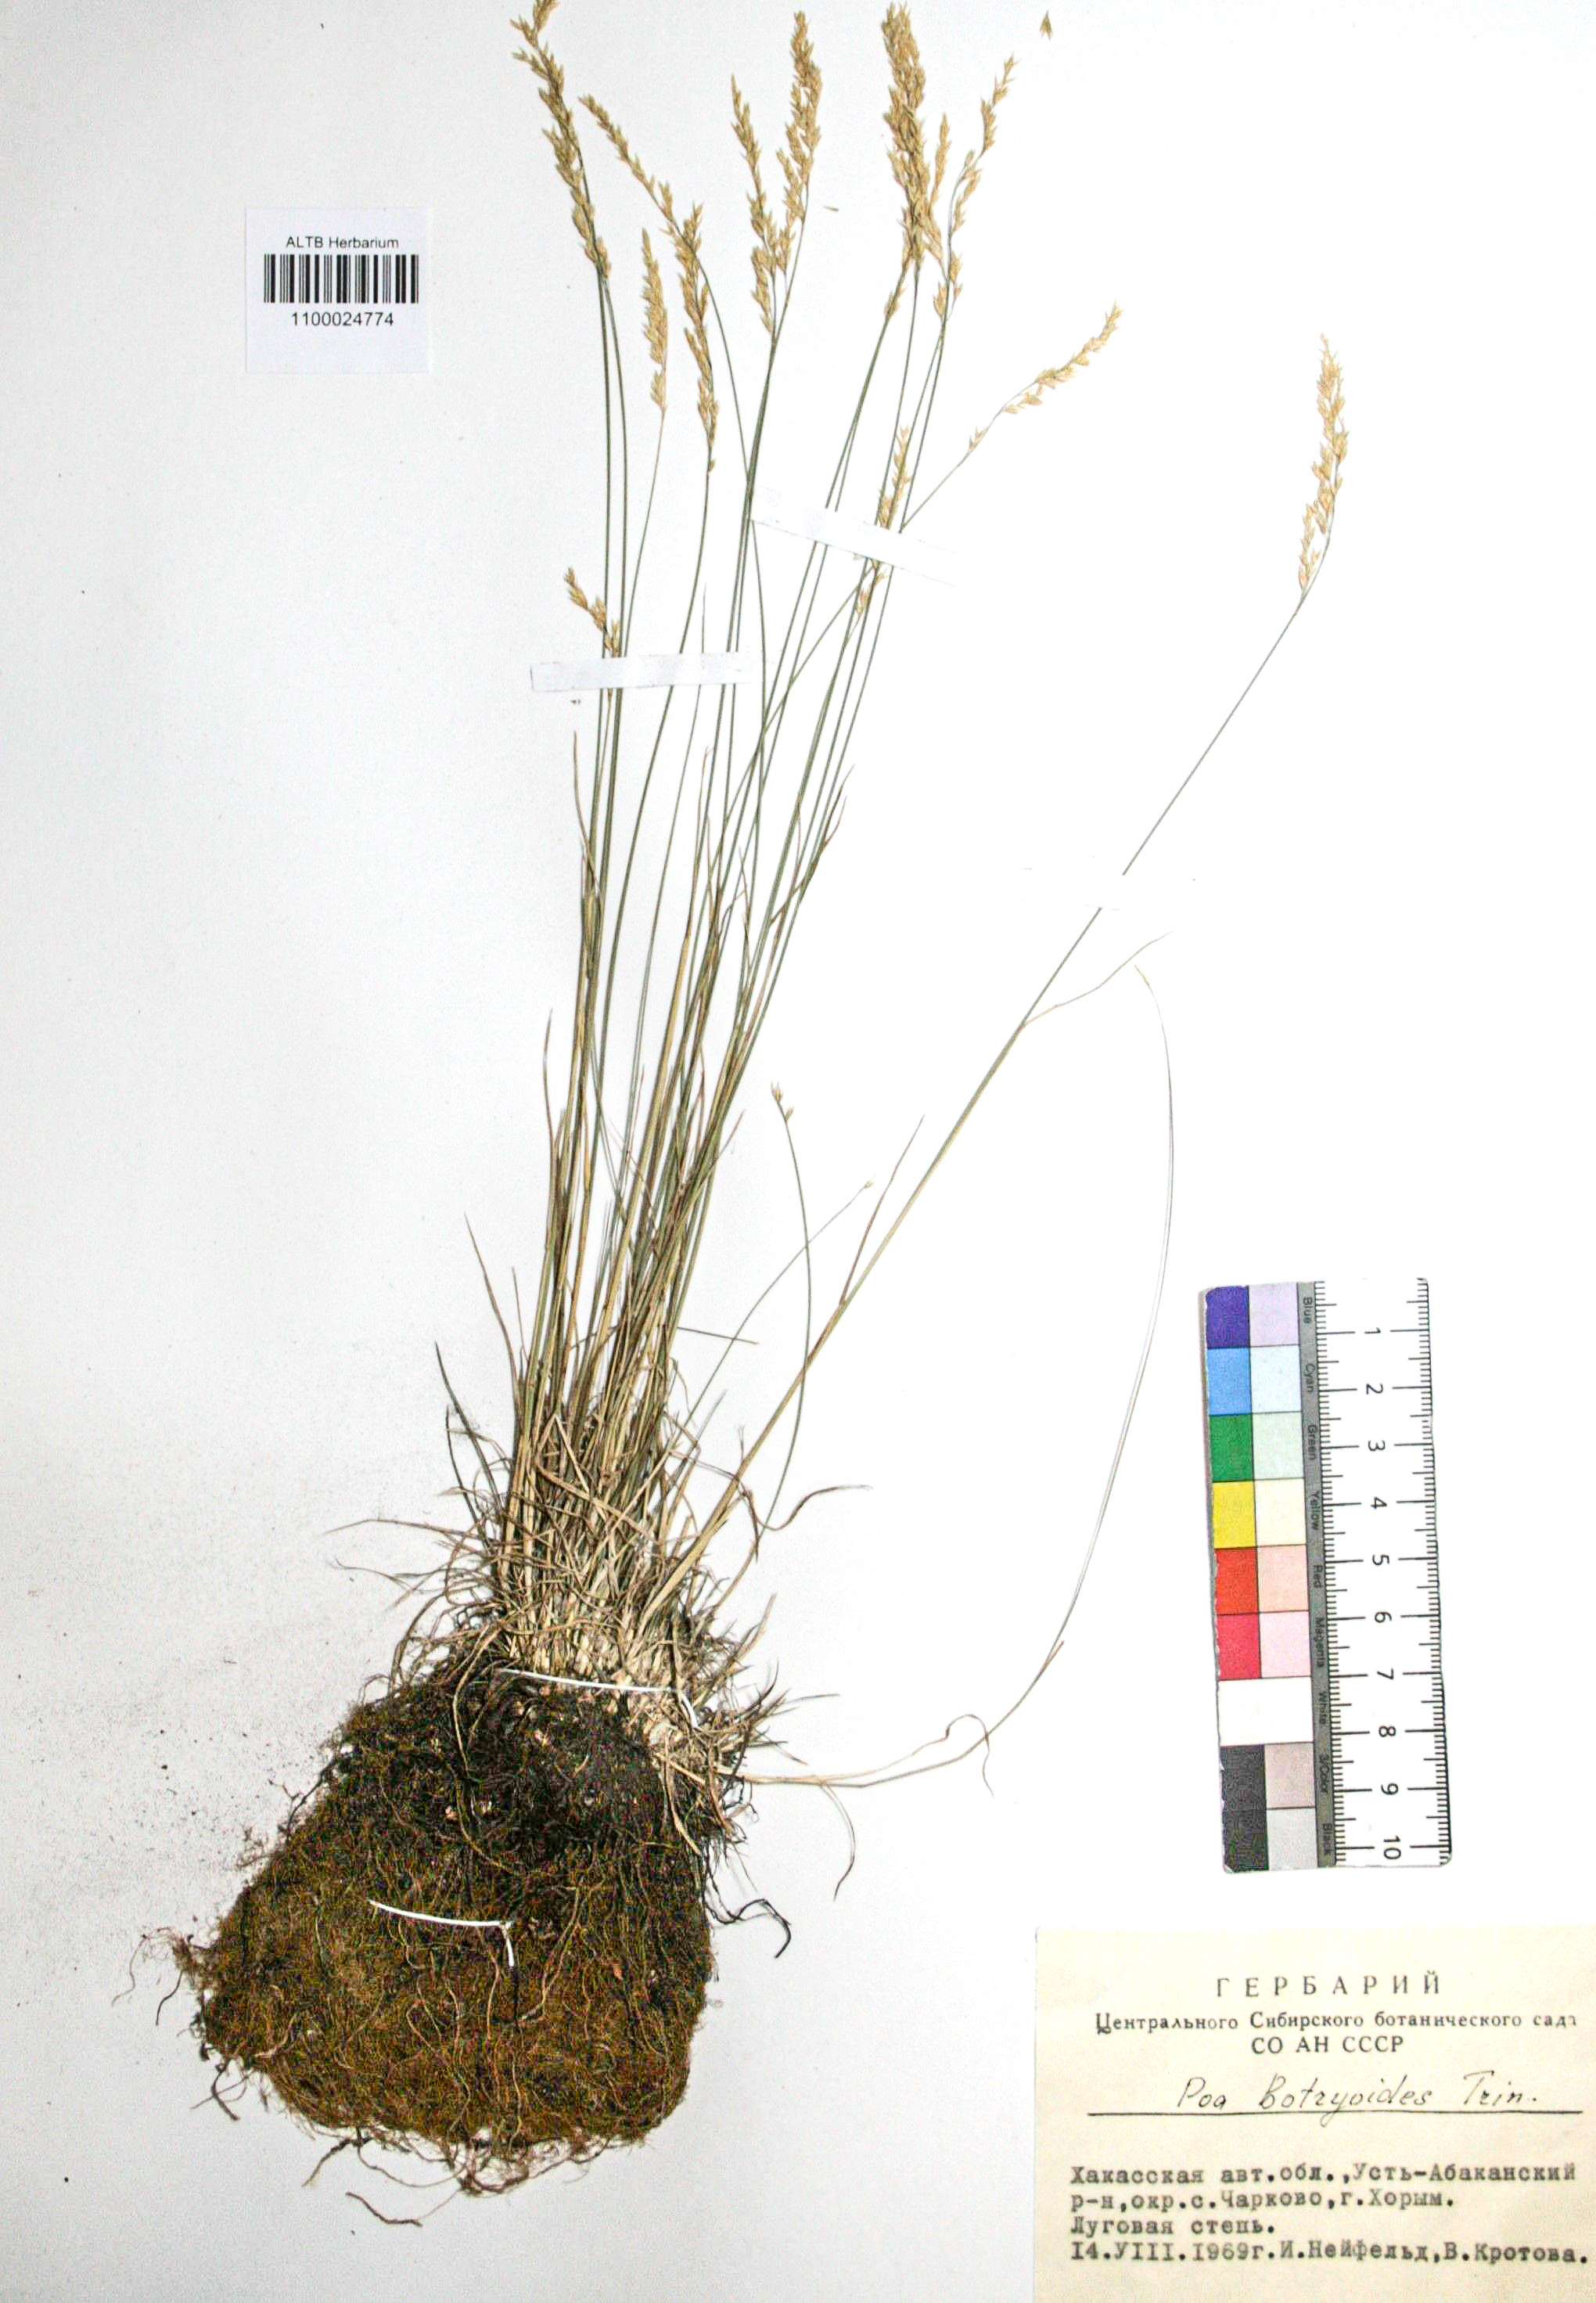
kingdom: Plantae
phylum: Tracheophyta
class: Liliopsida
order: Poales
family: Poaceae
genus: Poa
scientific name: Poa attenuata
